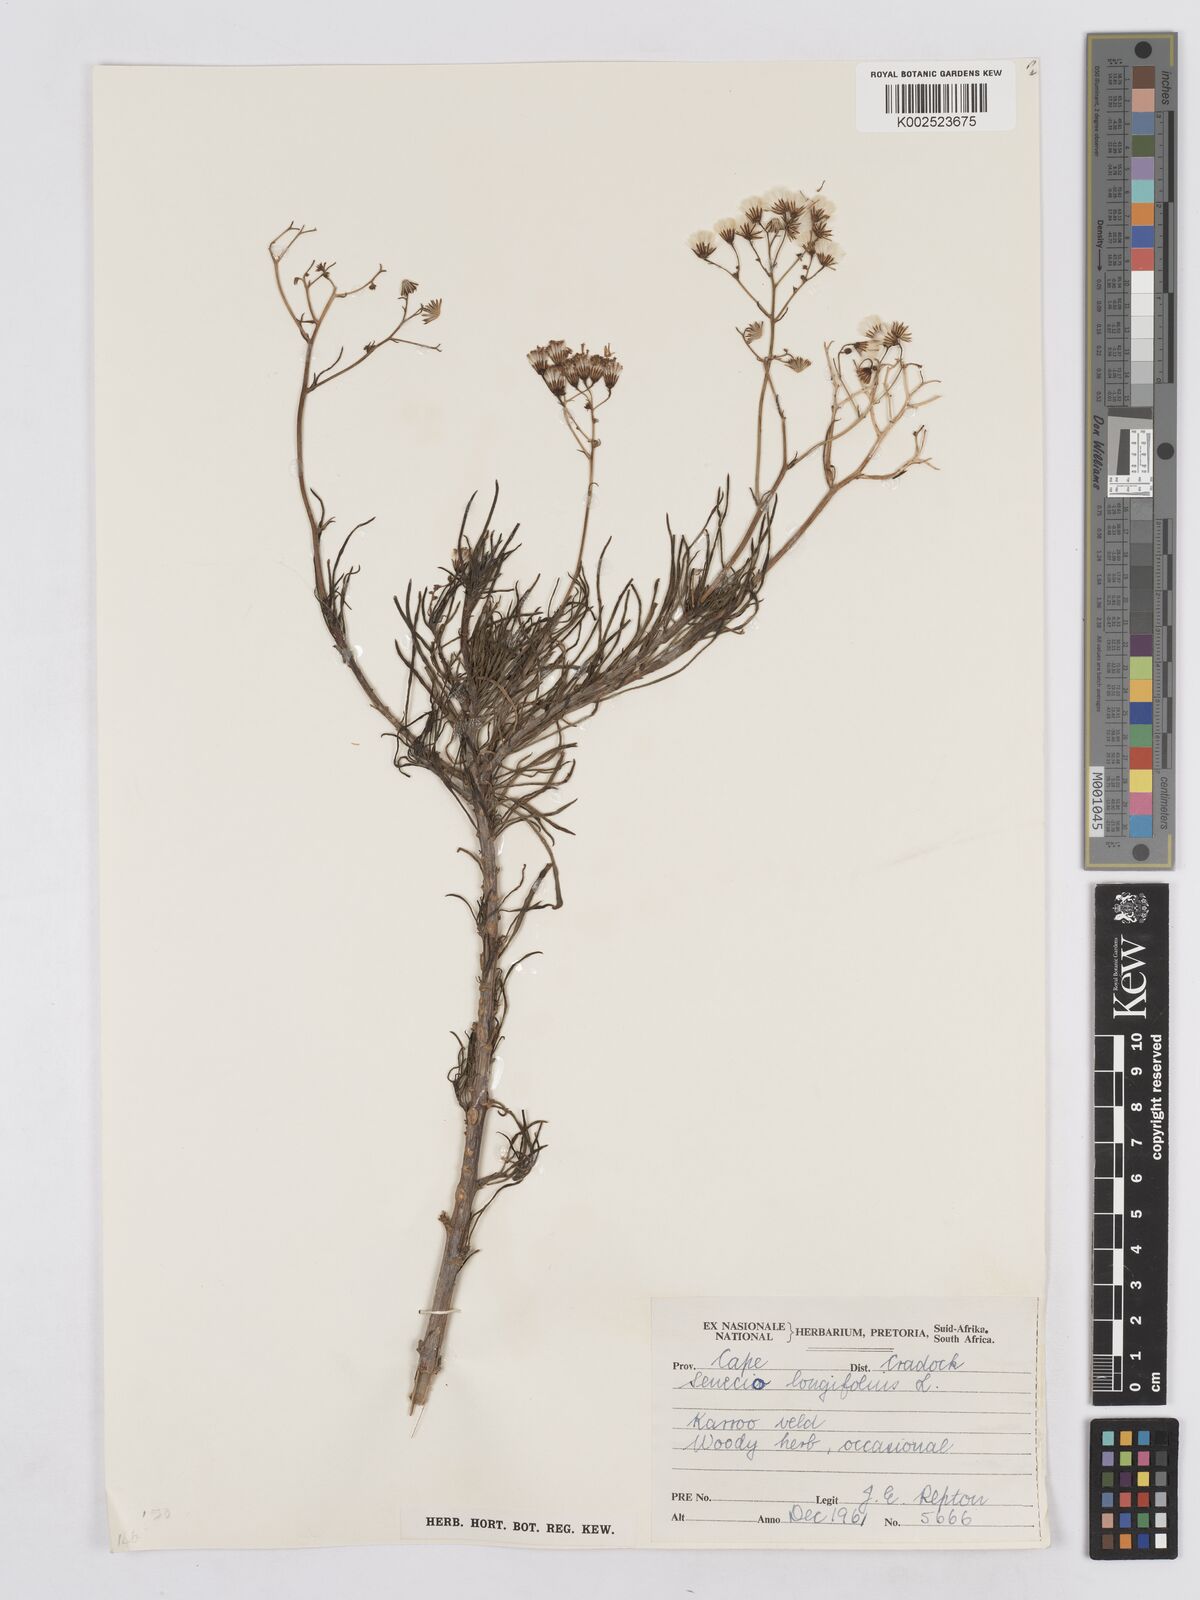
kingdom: Plantae
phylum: Tracheophyta
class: Magnoliopsida
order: Asterales
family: Asteraceae
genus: Senecio
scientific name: Senecio linifolius
